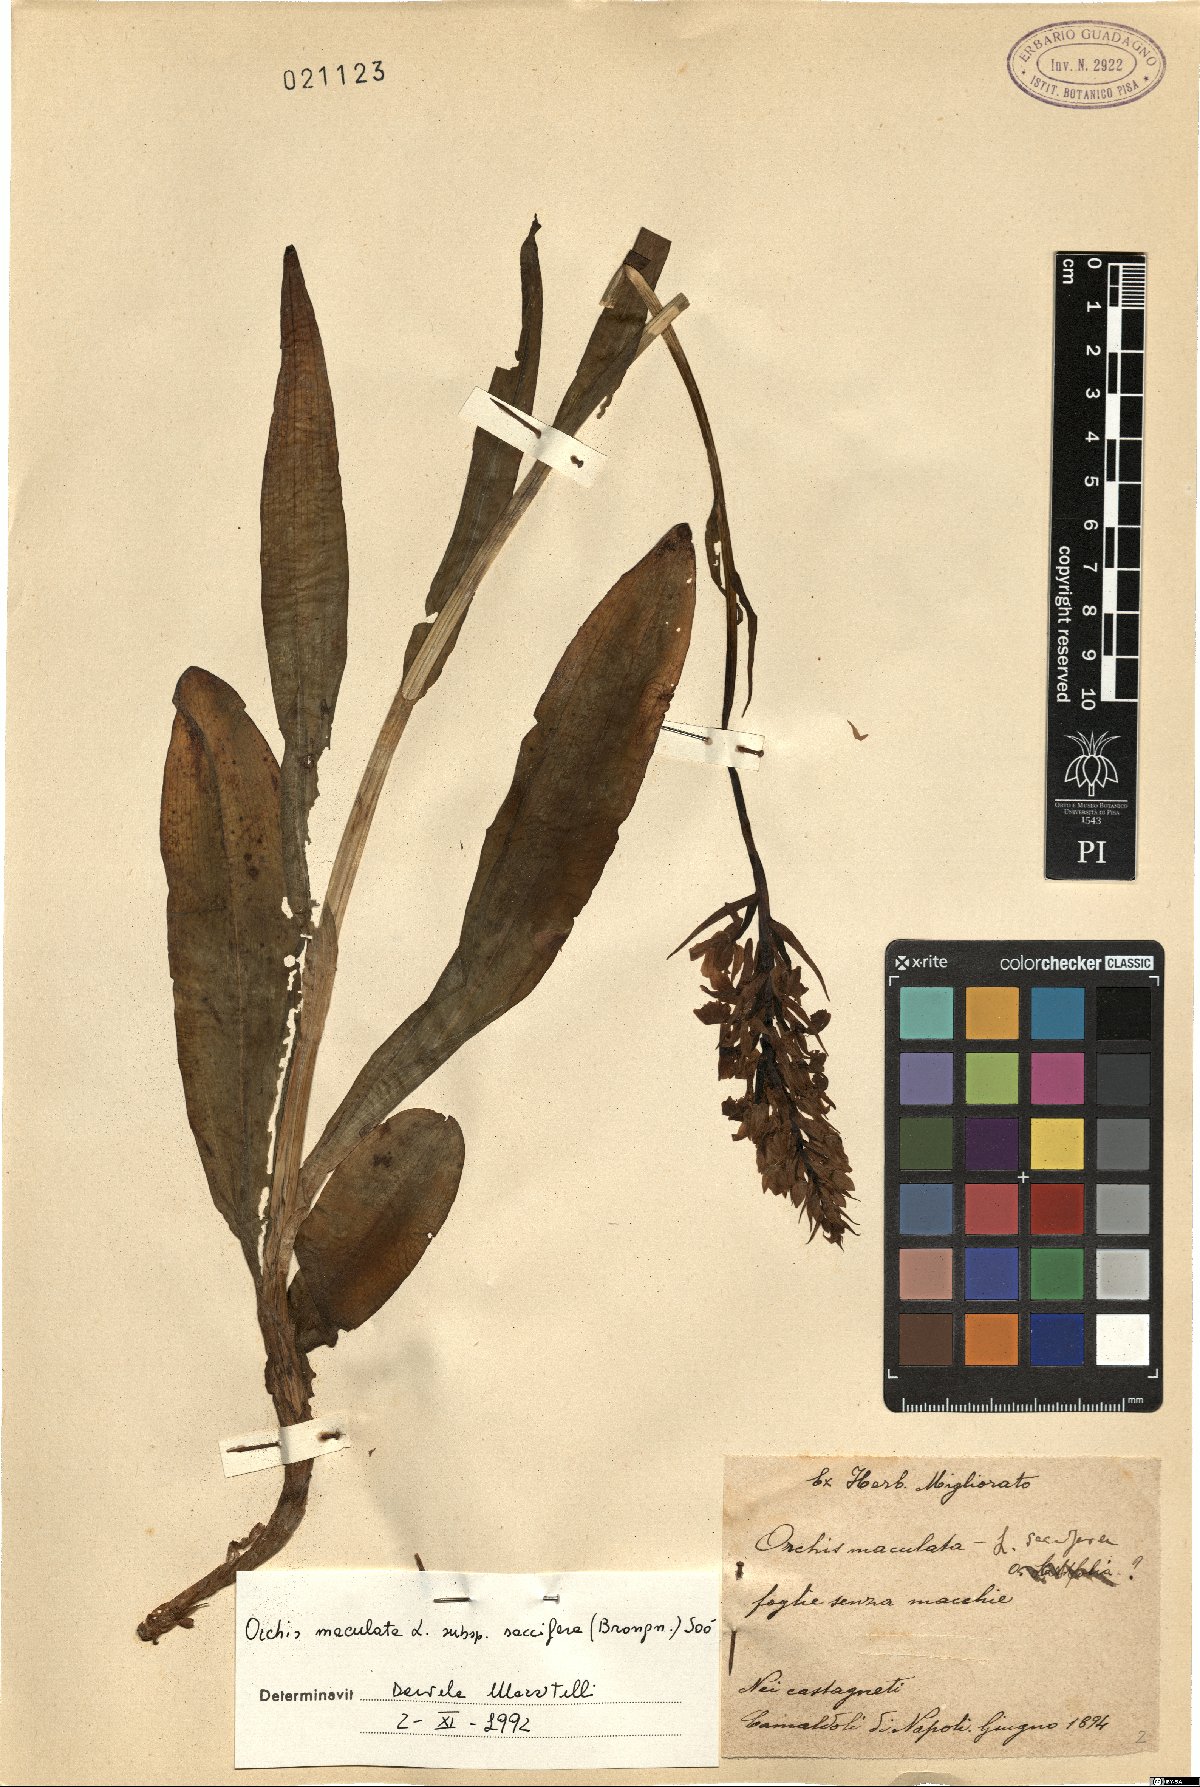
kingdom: Plantae
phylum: Tracheophyta
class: Liliopsida
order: Asparagales
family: Orchidaceae
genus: Dactylorhiza
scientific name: Dactylorhiza maculata
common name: Heath spotted-orchid
